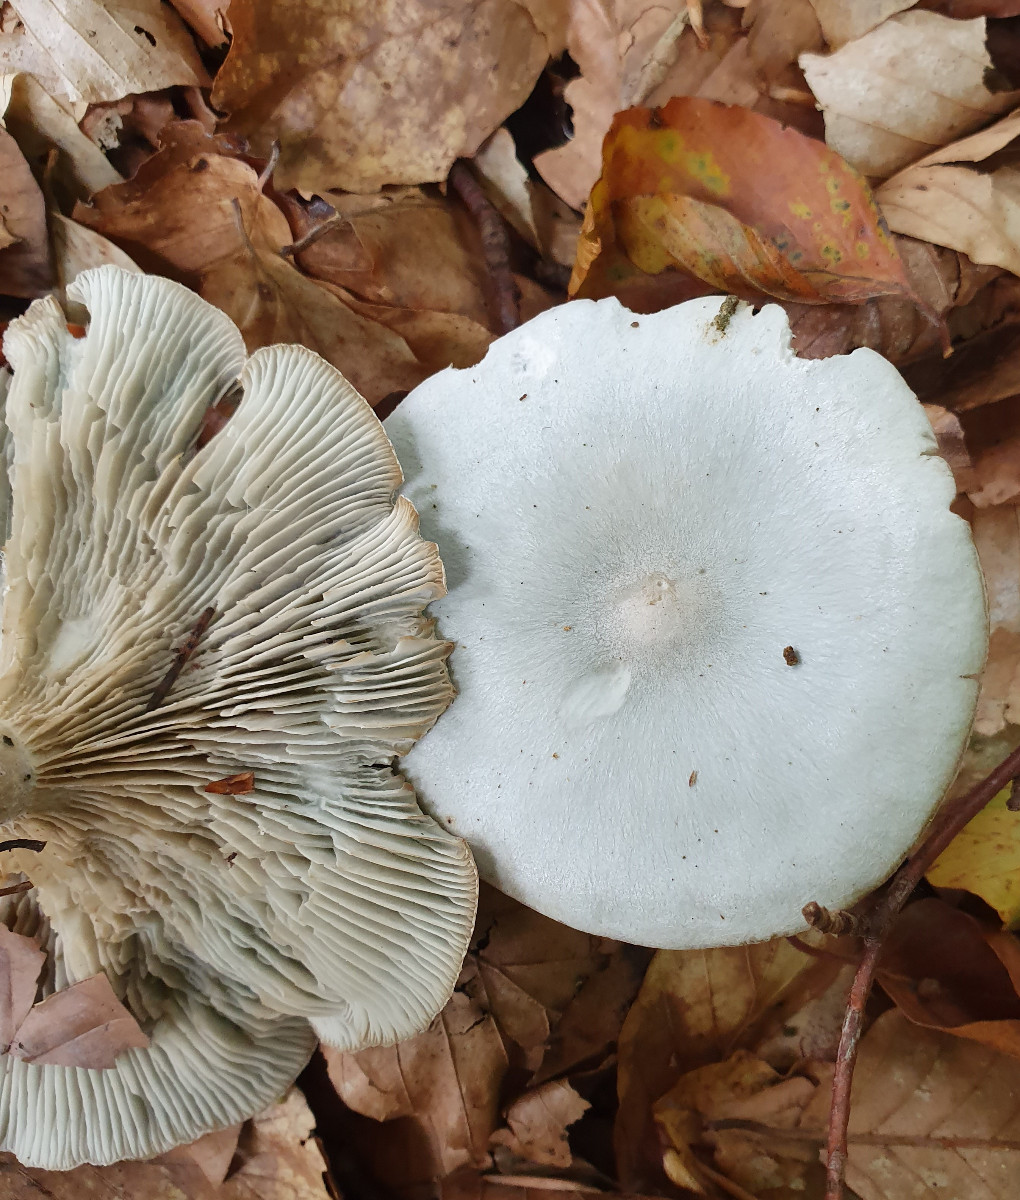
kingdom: Fungi
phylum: Basidiomycota
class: Agaricomycetes
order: Agaricales
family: Tricholomataceae
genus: Clitocybe
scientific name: Clitocybe odora
